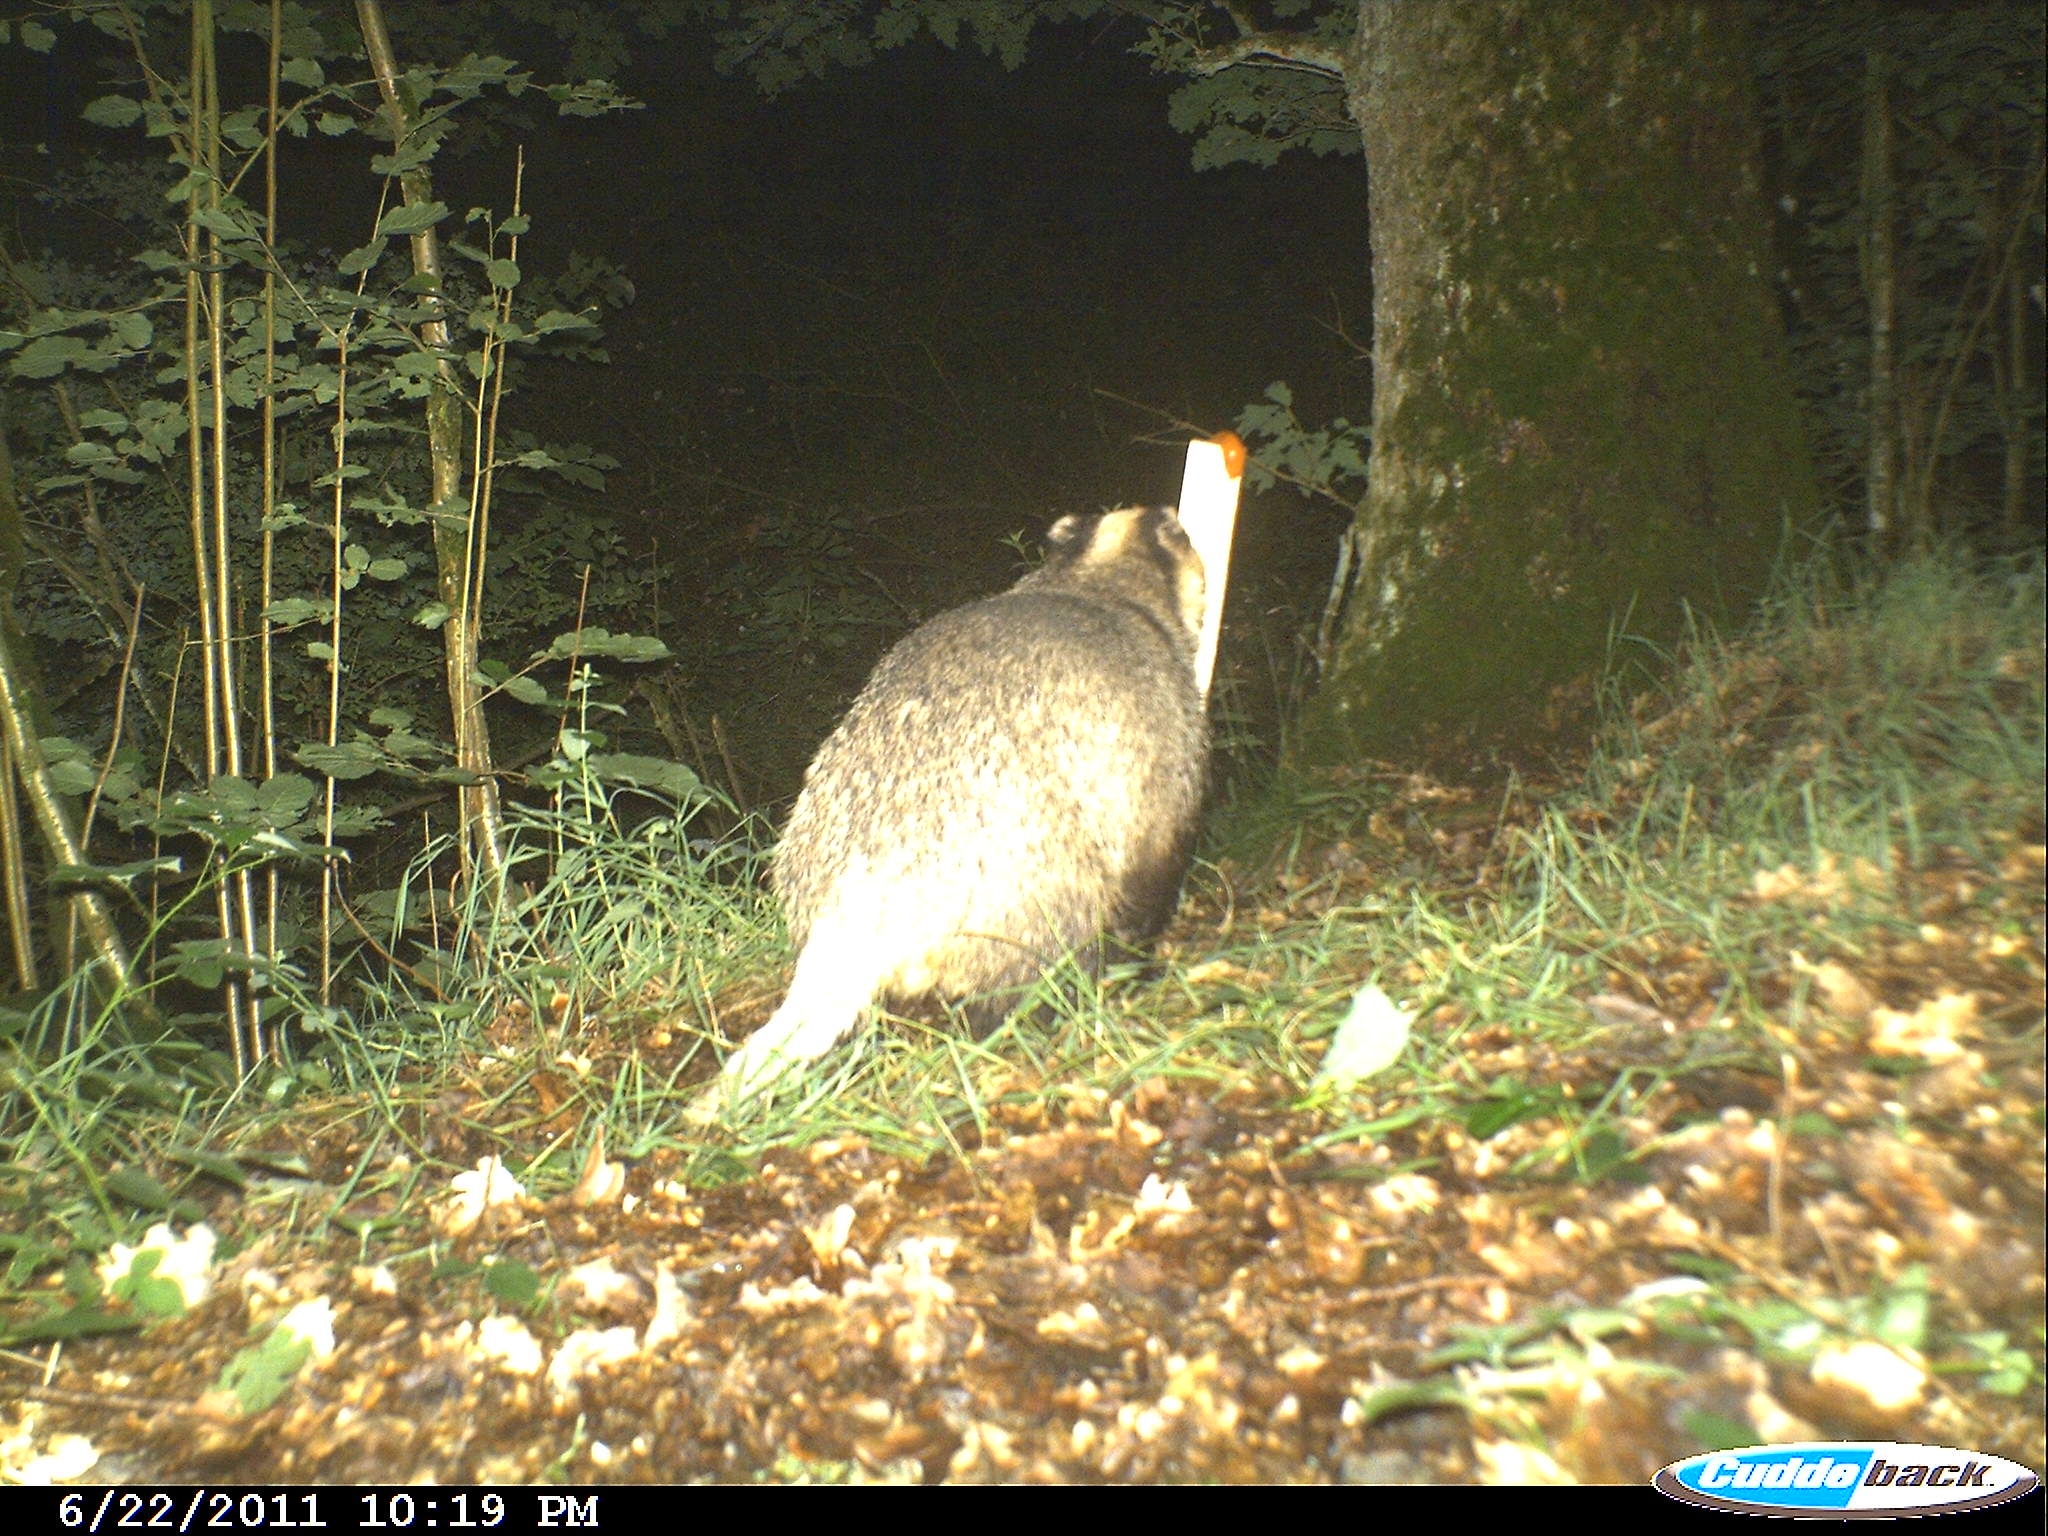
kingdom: Animalia
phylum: Chordata
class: Mammalia
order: Carnivora
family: Mustelidae
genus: Meles
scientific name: Meles meles
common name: Eurasian badger
